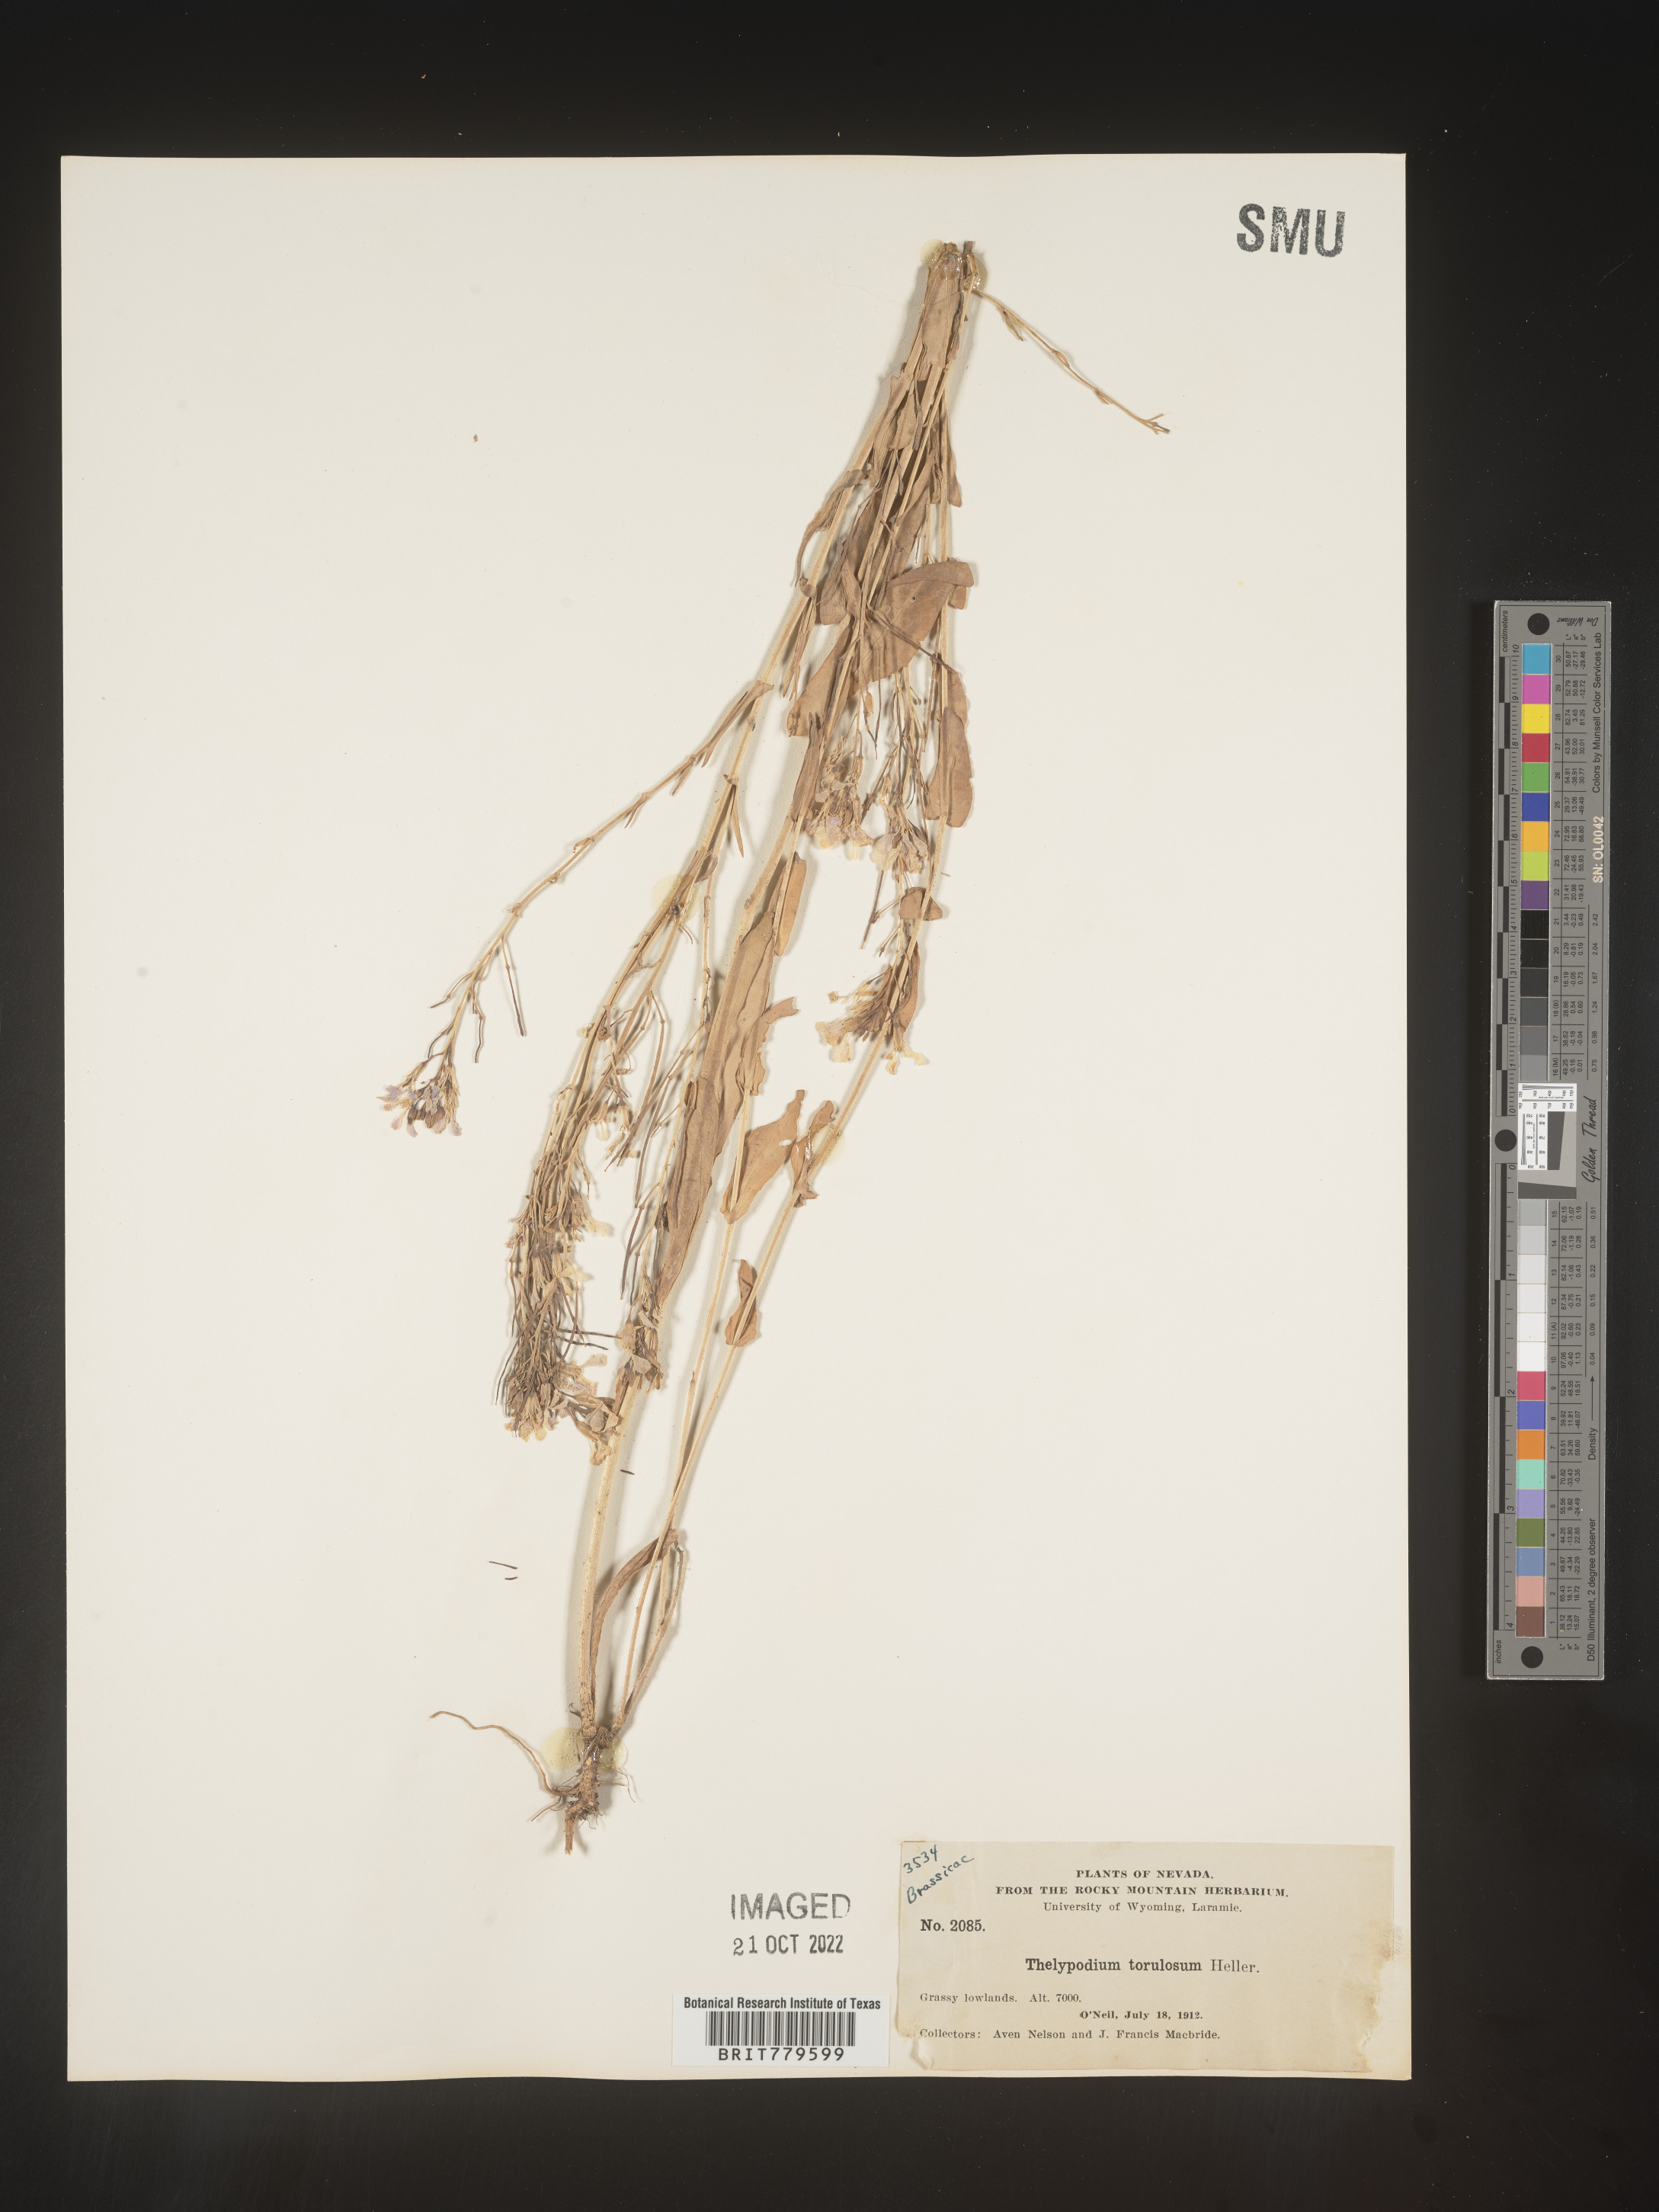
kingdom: Plantae
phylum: Tracheophyta
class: Magnoliopsida
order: Brassicales
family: Brassicaceae
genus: Thelypodium
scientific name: Thelypodium
